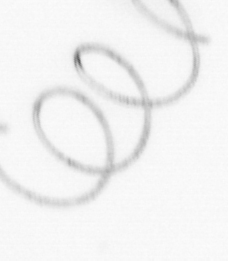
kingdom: Chromista
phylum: Ochrophyta
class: Bacillariophyceae
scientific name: Bacillariophyceae
